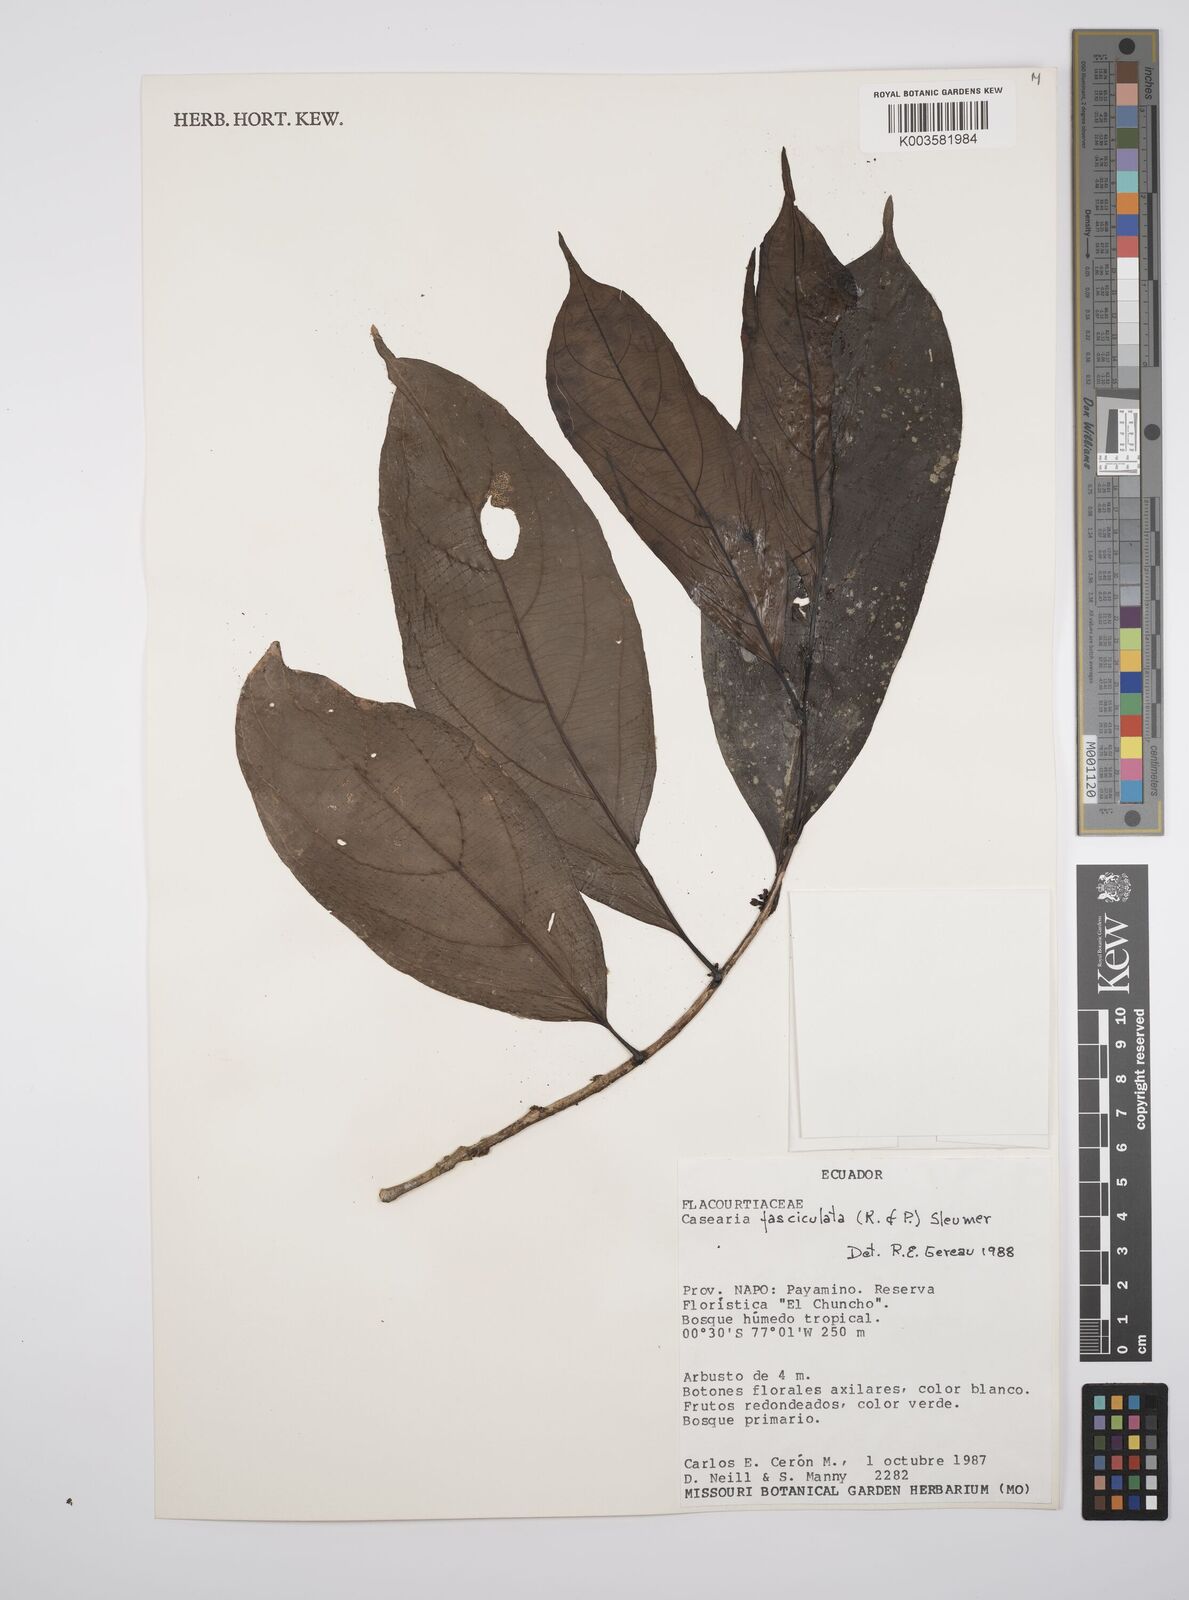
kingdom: Plantae
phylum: Tracheophyta
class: Magnoliopsida
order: Malpighiales
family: Salicaceae
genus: Casearia
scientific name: Casearia
